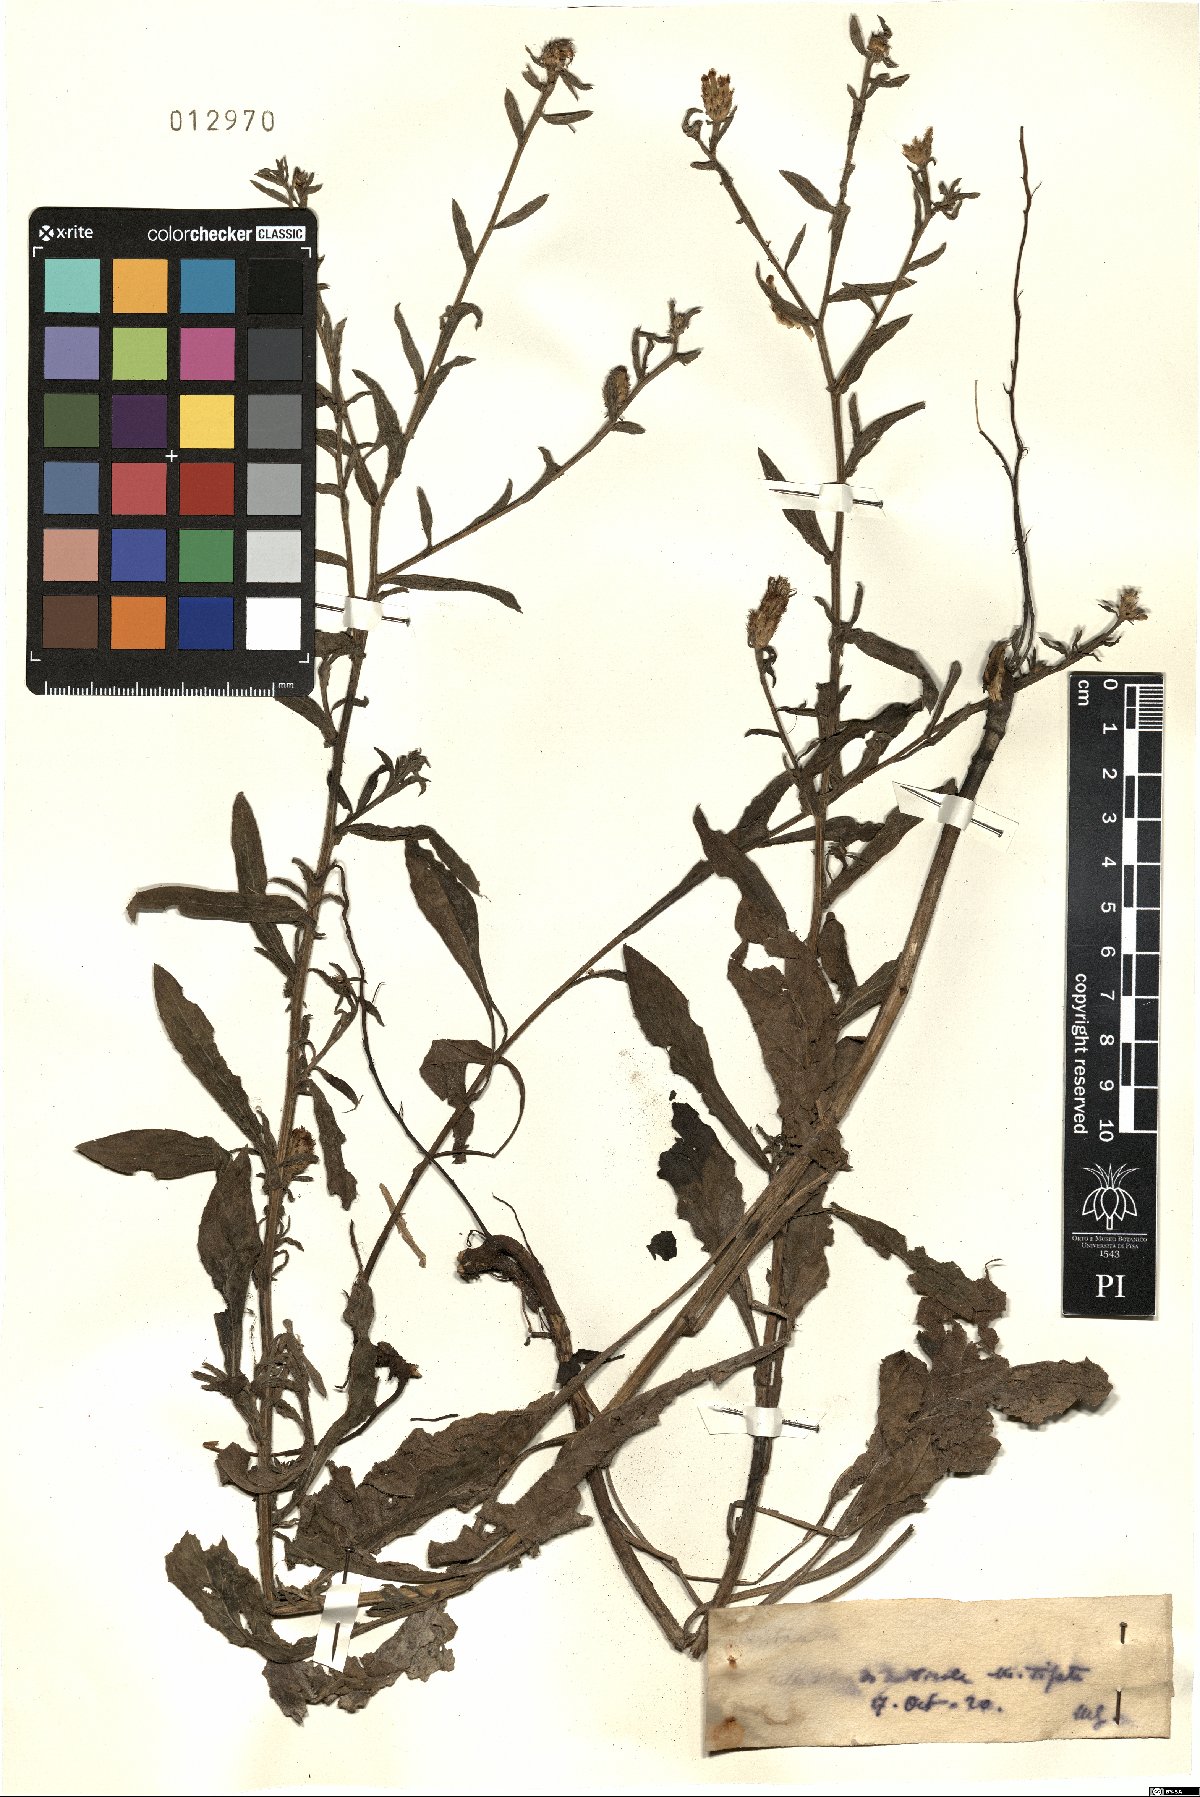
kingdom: Plantae
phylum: Tracheophyta
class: Magnoliopsida
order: Asterales
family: Asteraceae
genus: Centaurea
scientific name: Centaurea
